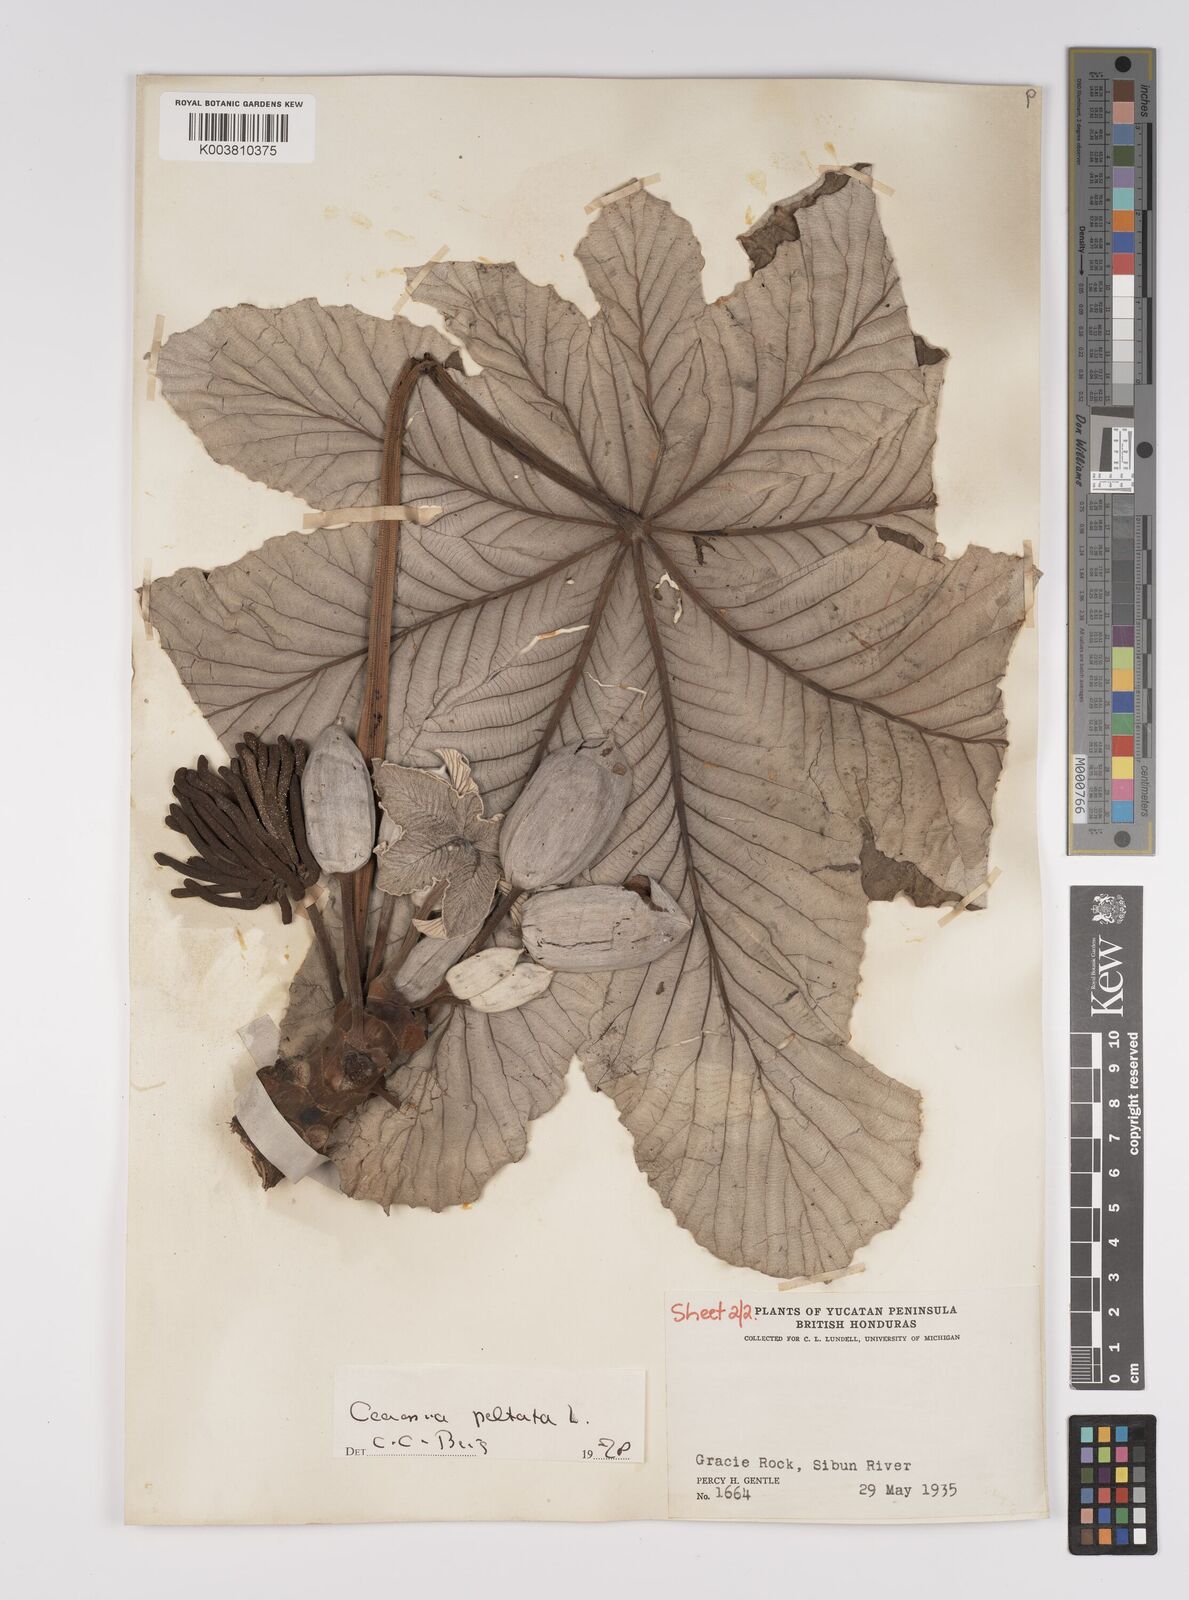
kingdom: Plantae
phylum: Tracheophyta
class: Magnoliopsida
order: Rosales
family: Urticaceae
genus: Cecropia
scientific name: Cecropia peltata
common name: Trumpet-tree
